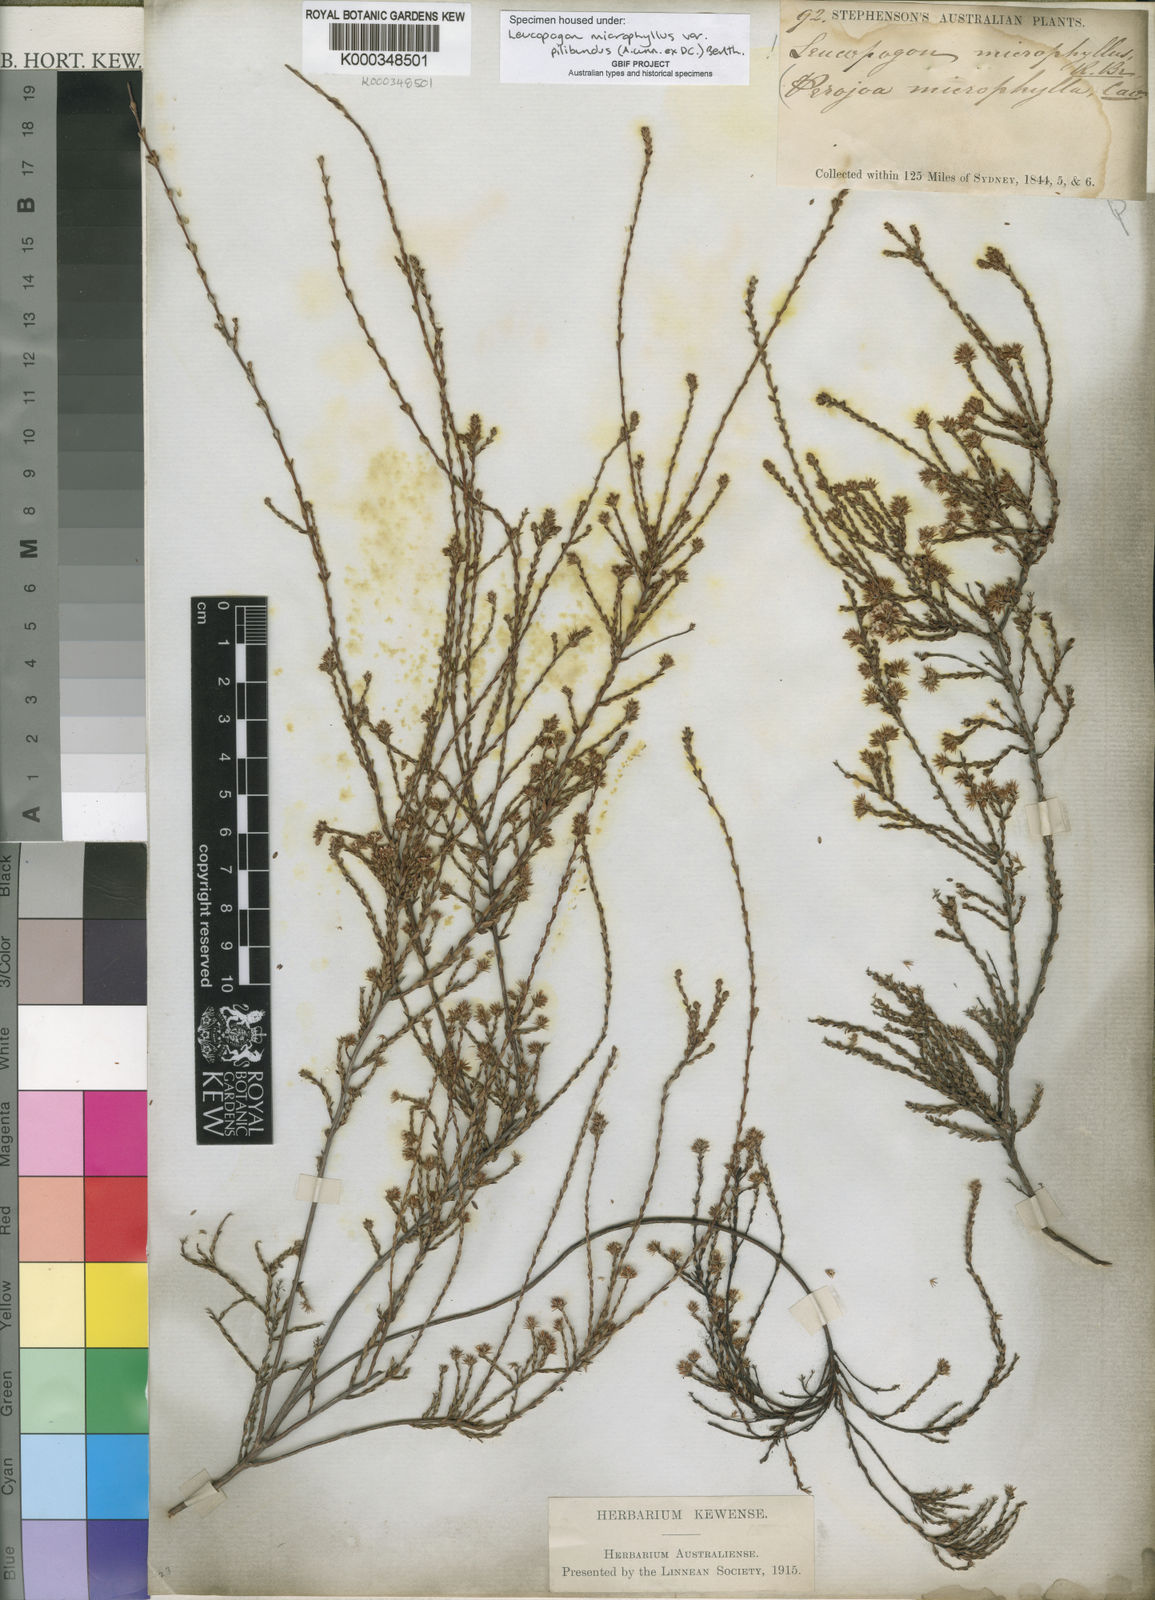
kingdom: Plantae
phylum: Tracheophyta
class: Magnoliopsida
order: Ericales
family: Ericaceae
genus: Leucopogon
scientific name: Leucopogon microphyllus
